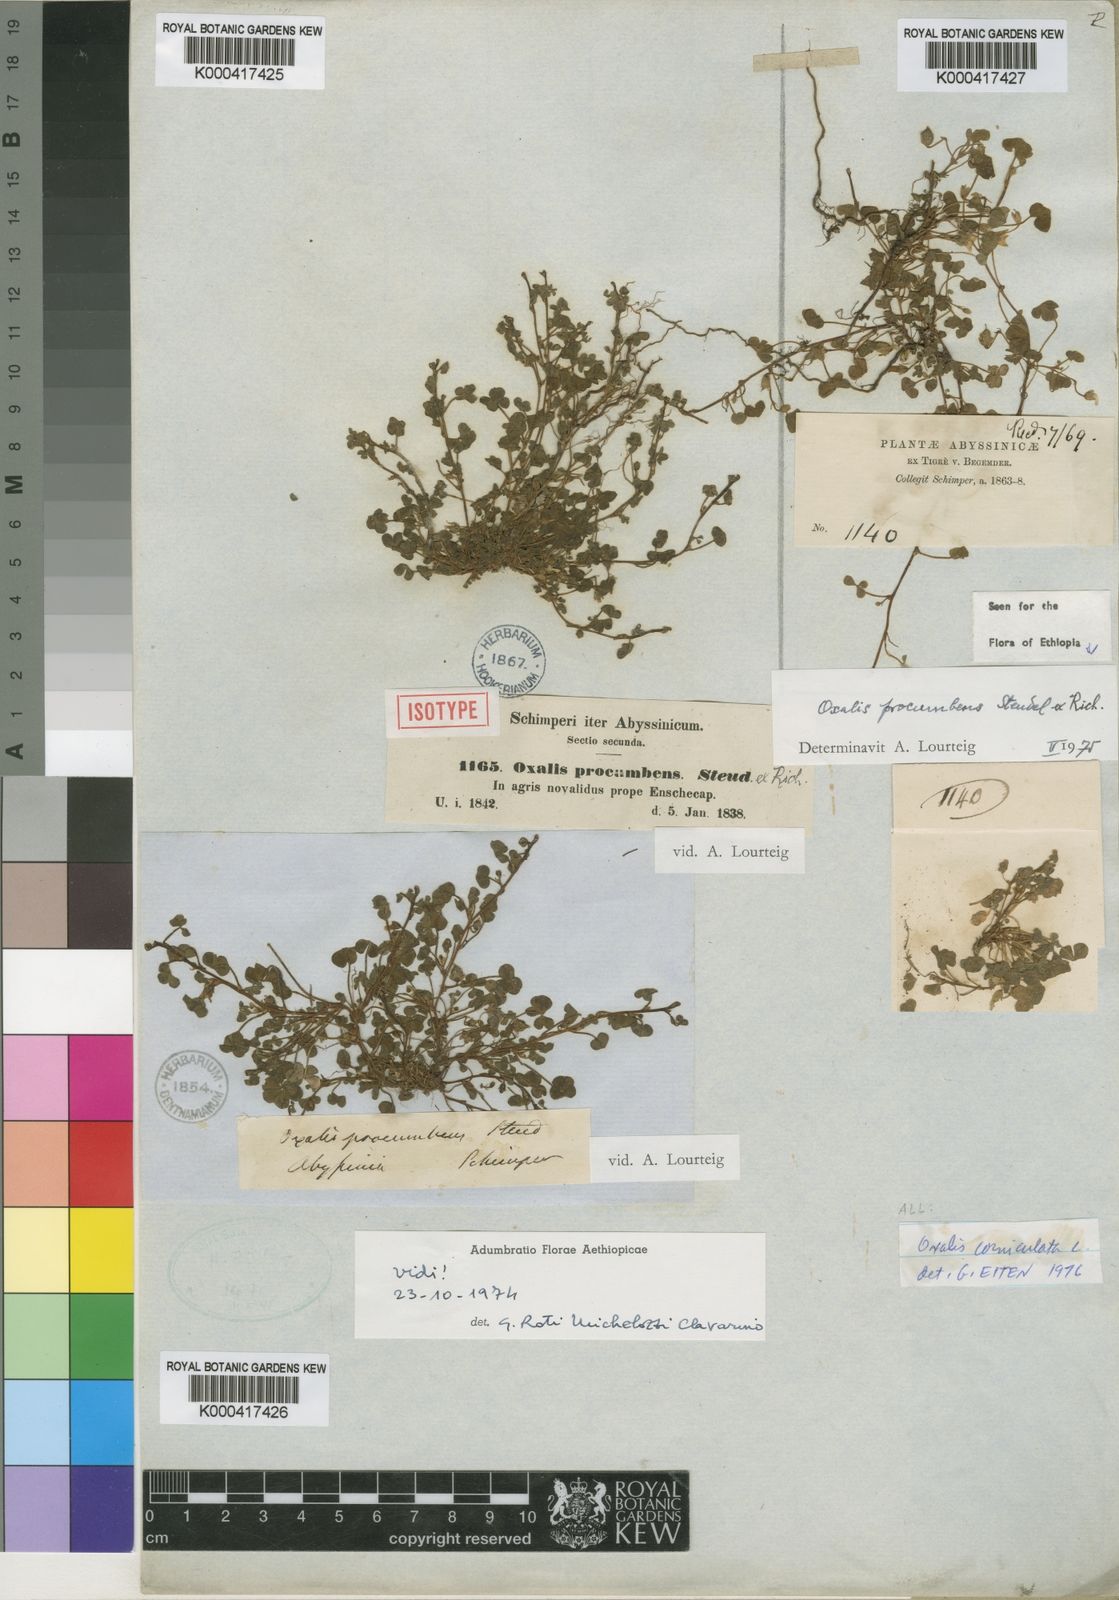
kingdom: Plantae
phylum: Tracheophyta
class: Magnoliopsida
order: Oxalidales
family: Oxalidaceae
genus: Oxalis
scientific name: Oxalis procumbens
